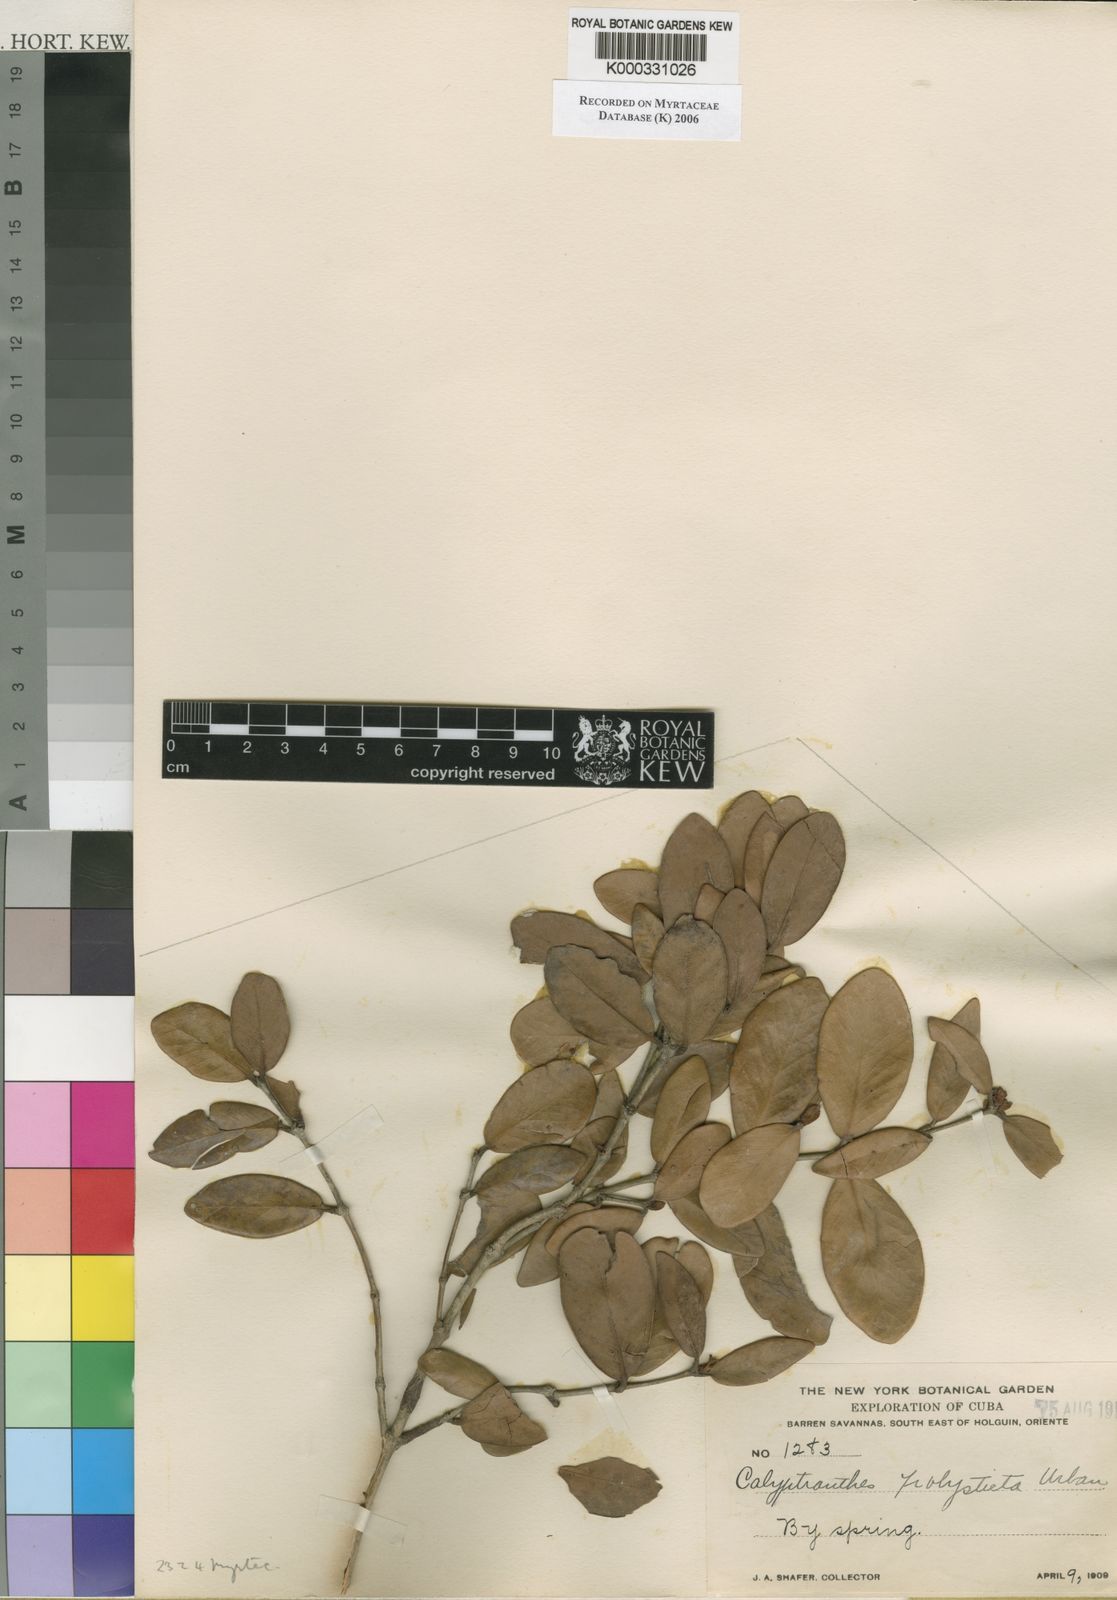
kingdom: Plantae
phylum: Tracheophyta
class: Magnoliopsida
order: Myrtales
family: Myrtaceae
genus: Myrcia
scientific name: Myrcia polysticta
